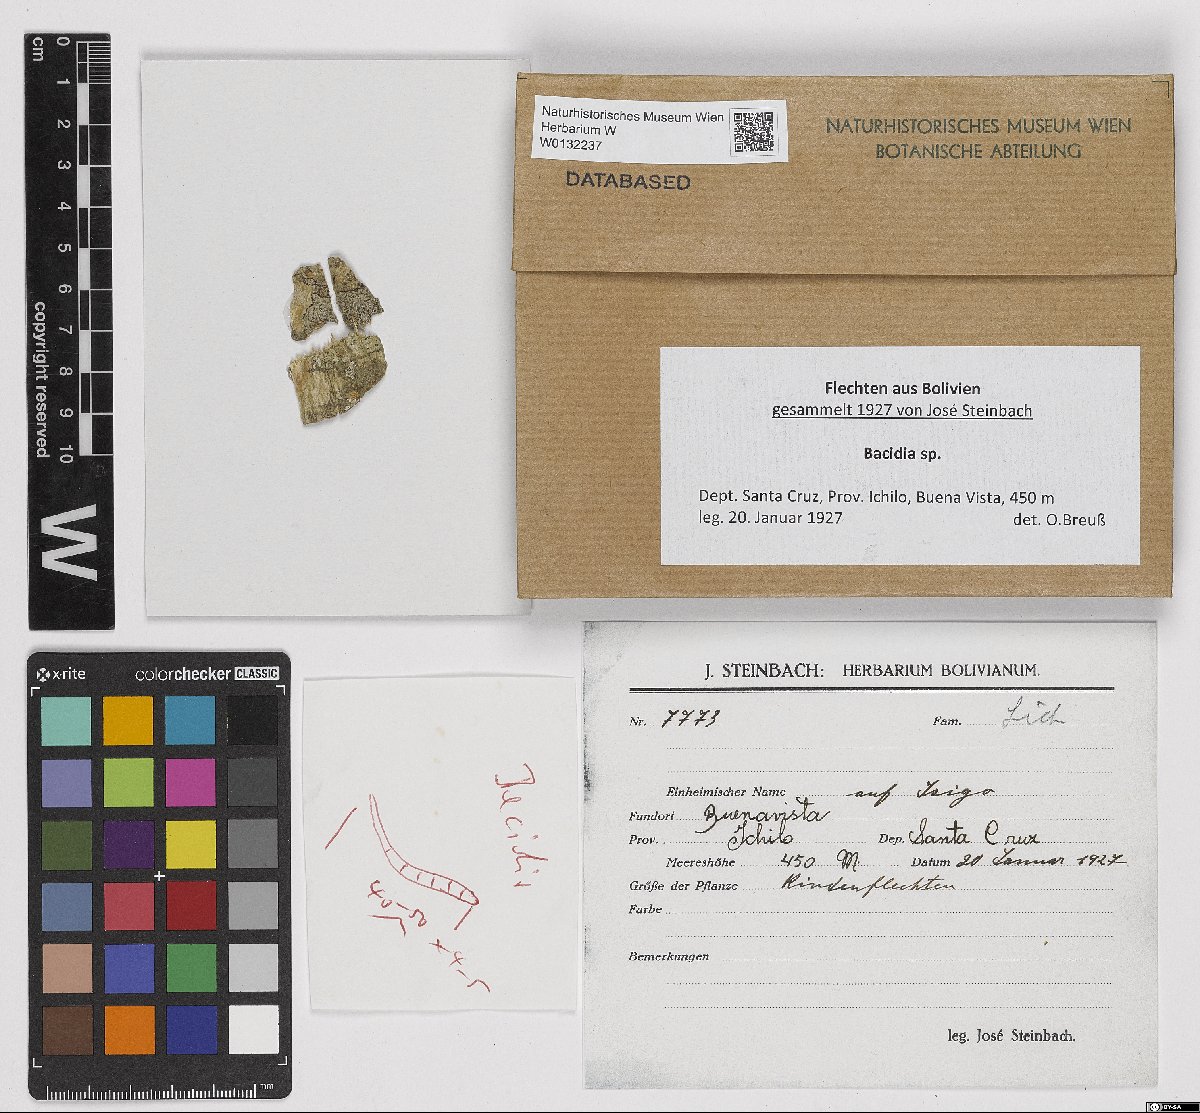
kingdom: Fungi
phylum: Ascomycota
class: Lecanoromycetes
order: Lecanorales
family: Ramalinaceae
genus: Bacidia
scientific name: Bacidia
